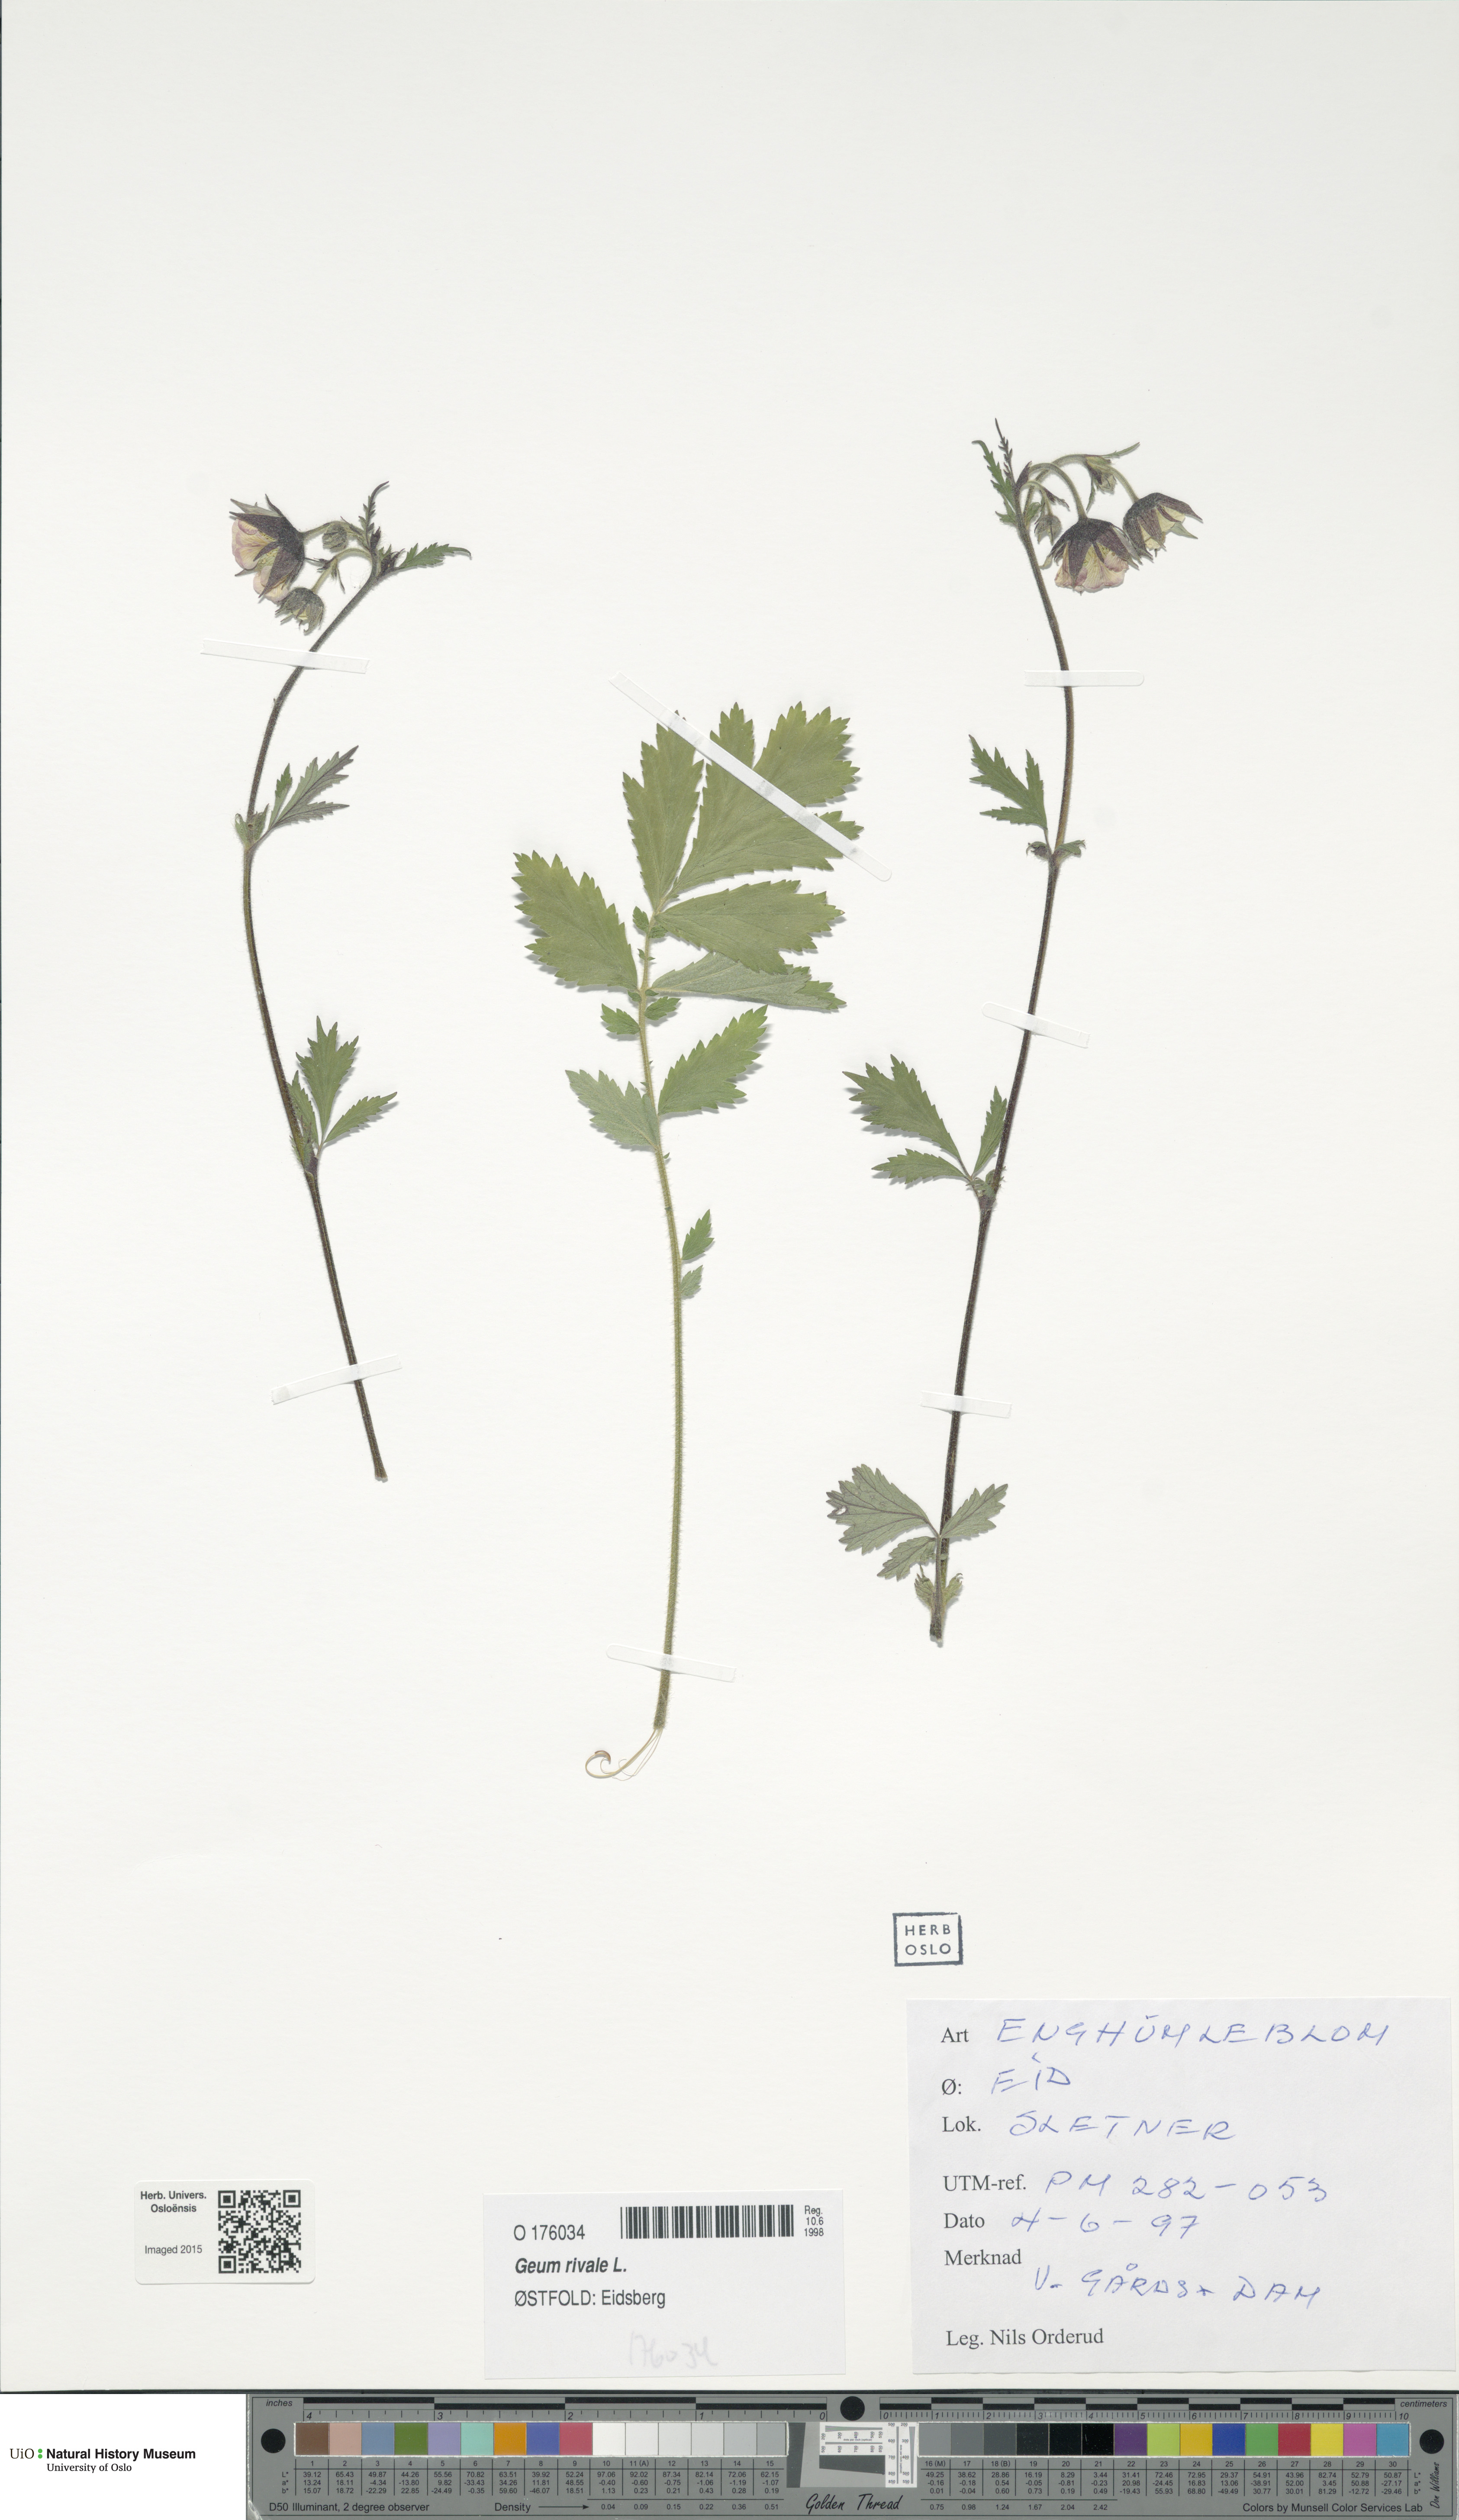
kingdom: Plantae
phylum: Tracheophyta
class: Magnoliopsida
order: Rosales
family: Rosaceae
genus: Geum
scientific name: Geum rivale
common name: Water avens
